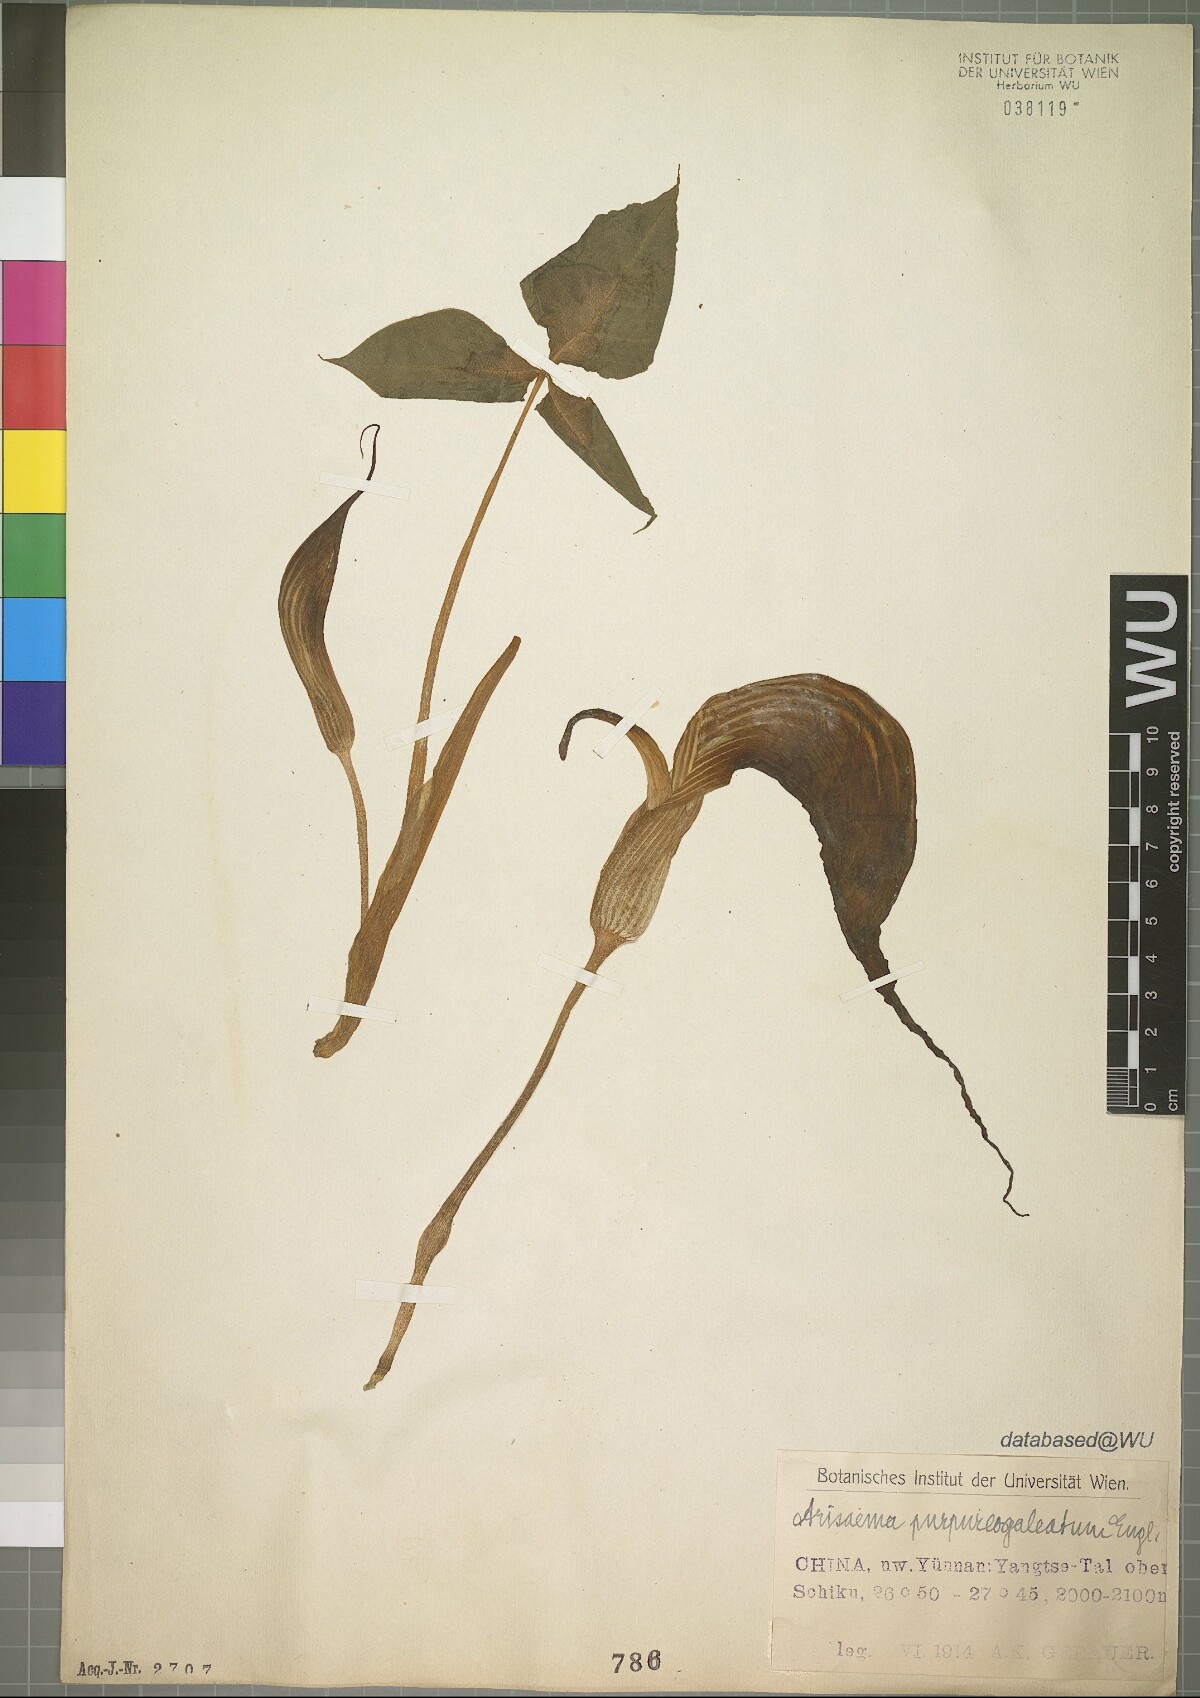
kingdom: Plantae
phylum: Tracheophyta
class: Liliopsida
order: Alismatales
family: Araceae
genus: Arisaema
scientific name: Arisaema purpureogaleatum
